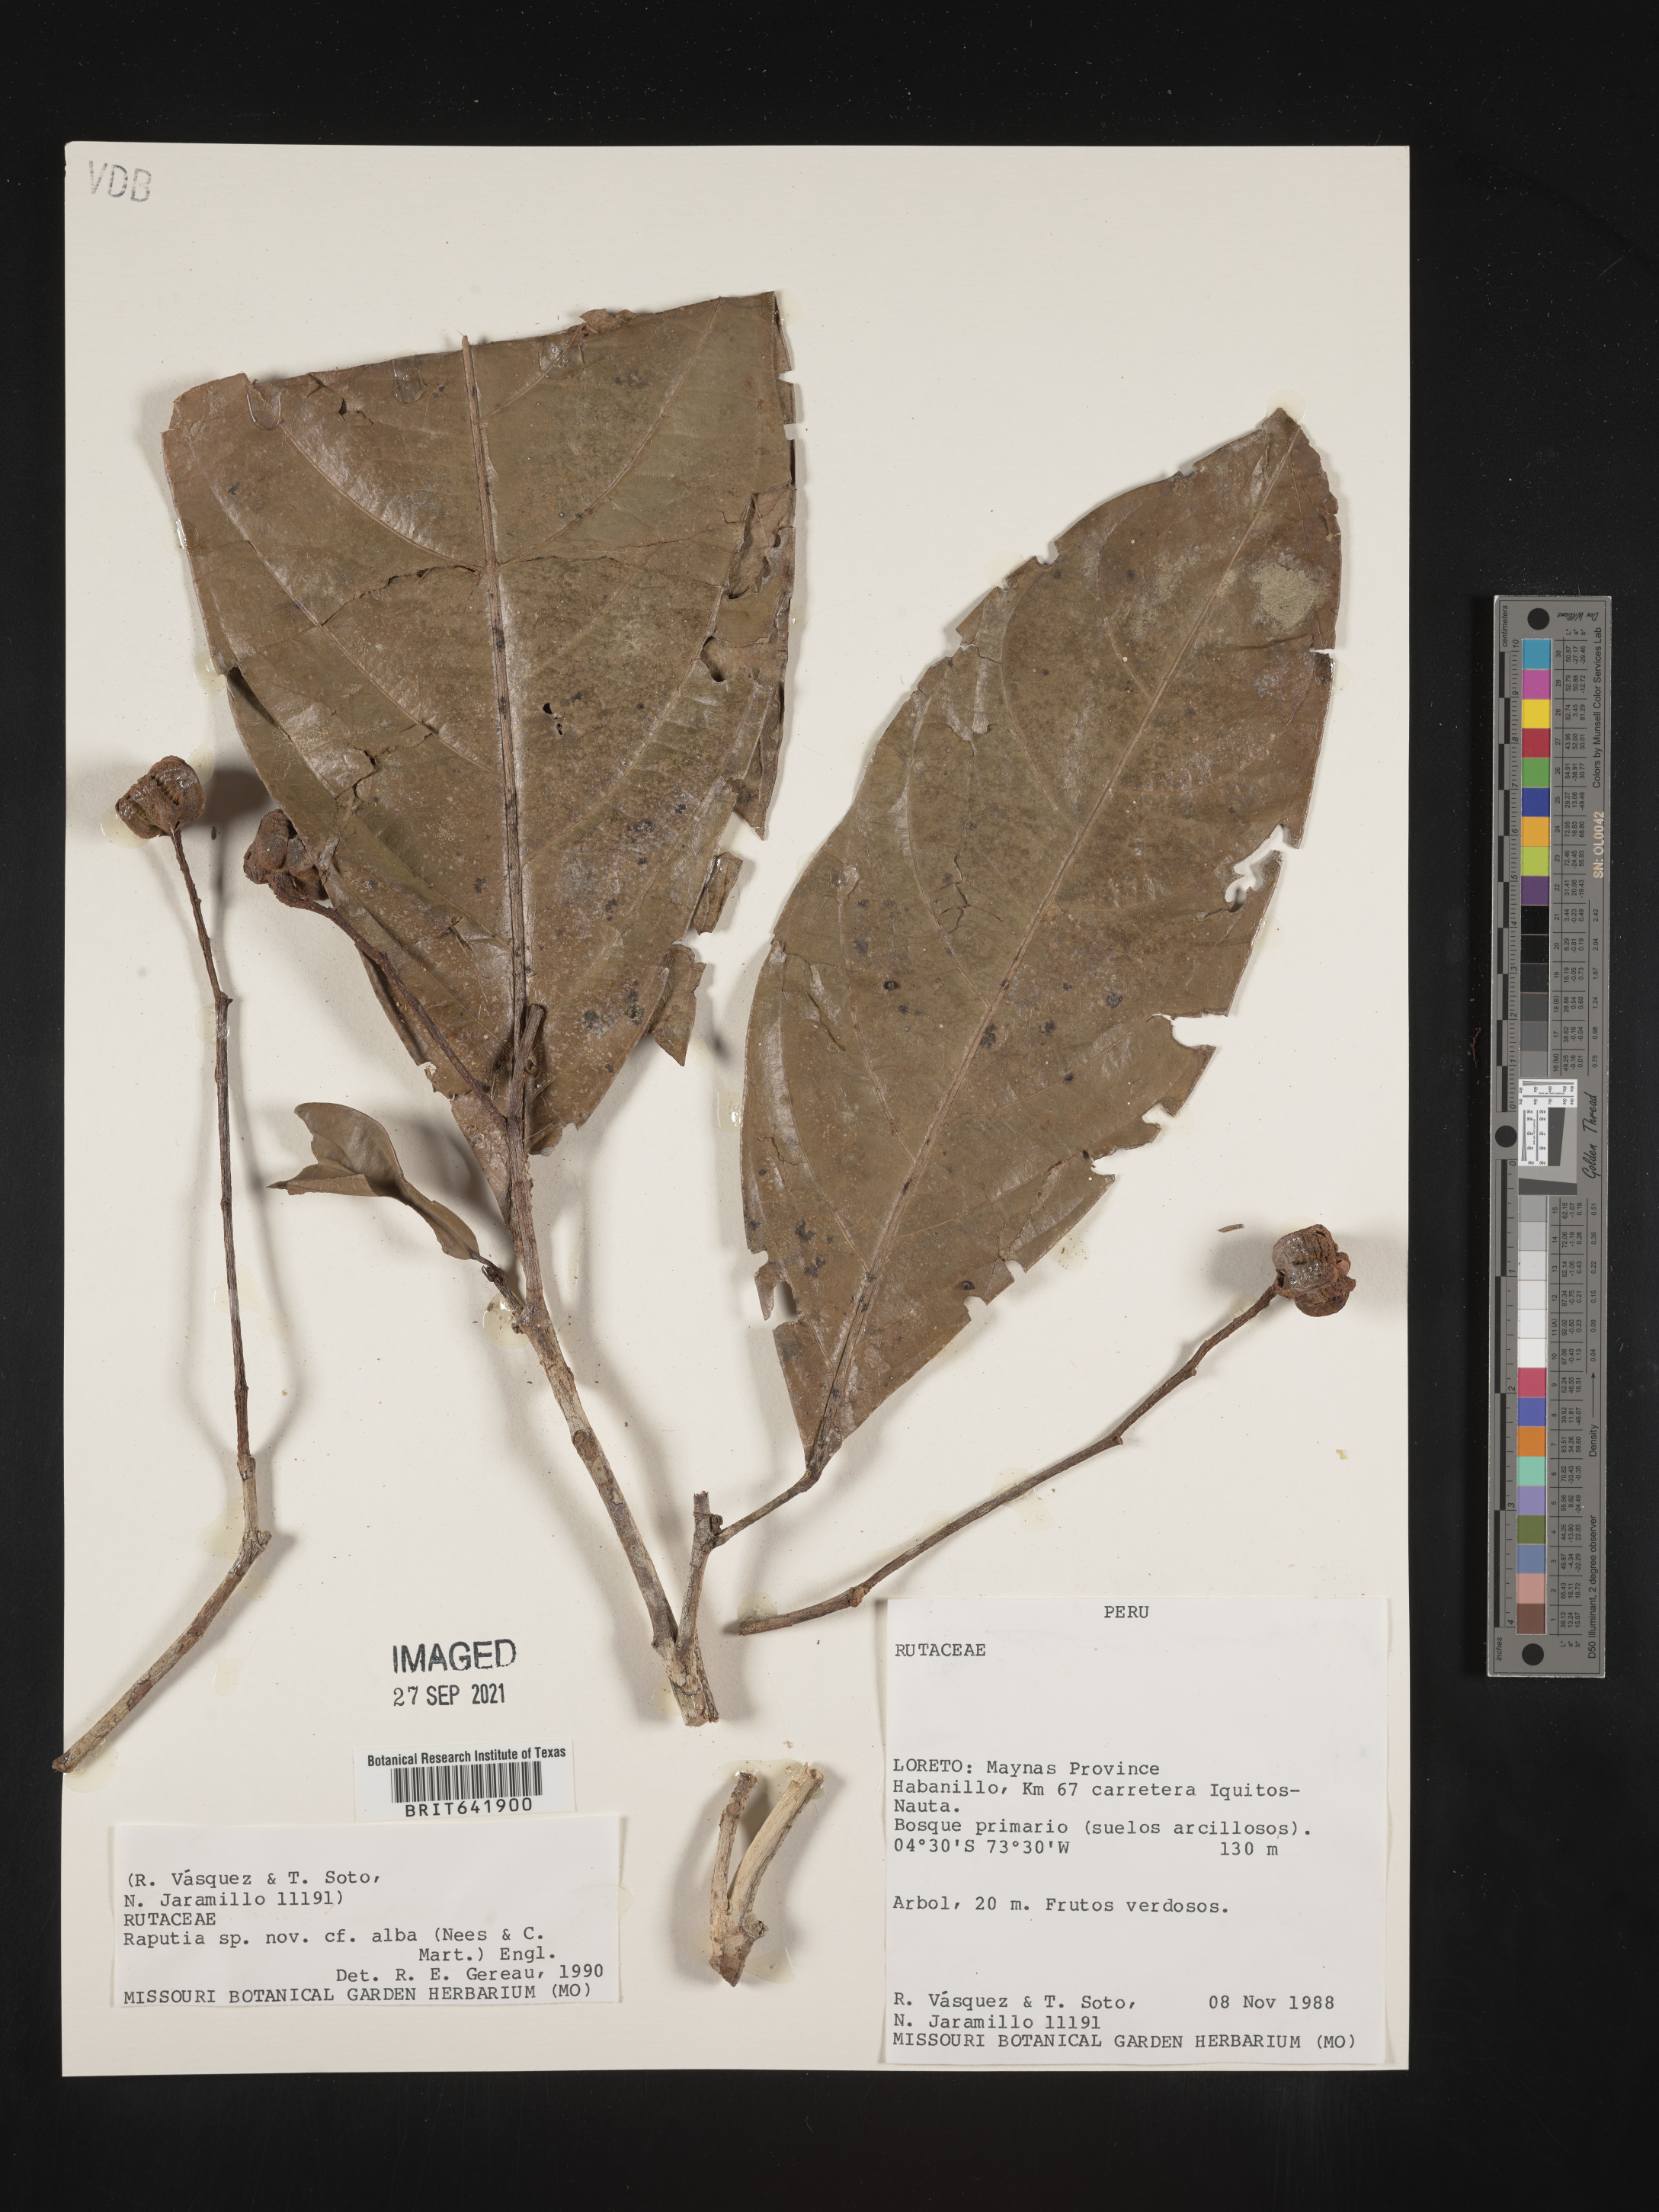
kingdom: Plantae
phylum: Tracheophyta
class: Magnoliopsida
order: Sapindales
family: Rutaceae
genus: Raputia
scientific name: Raputia
